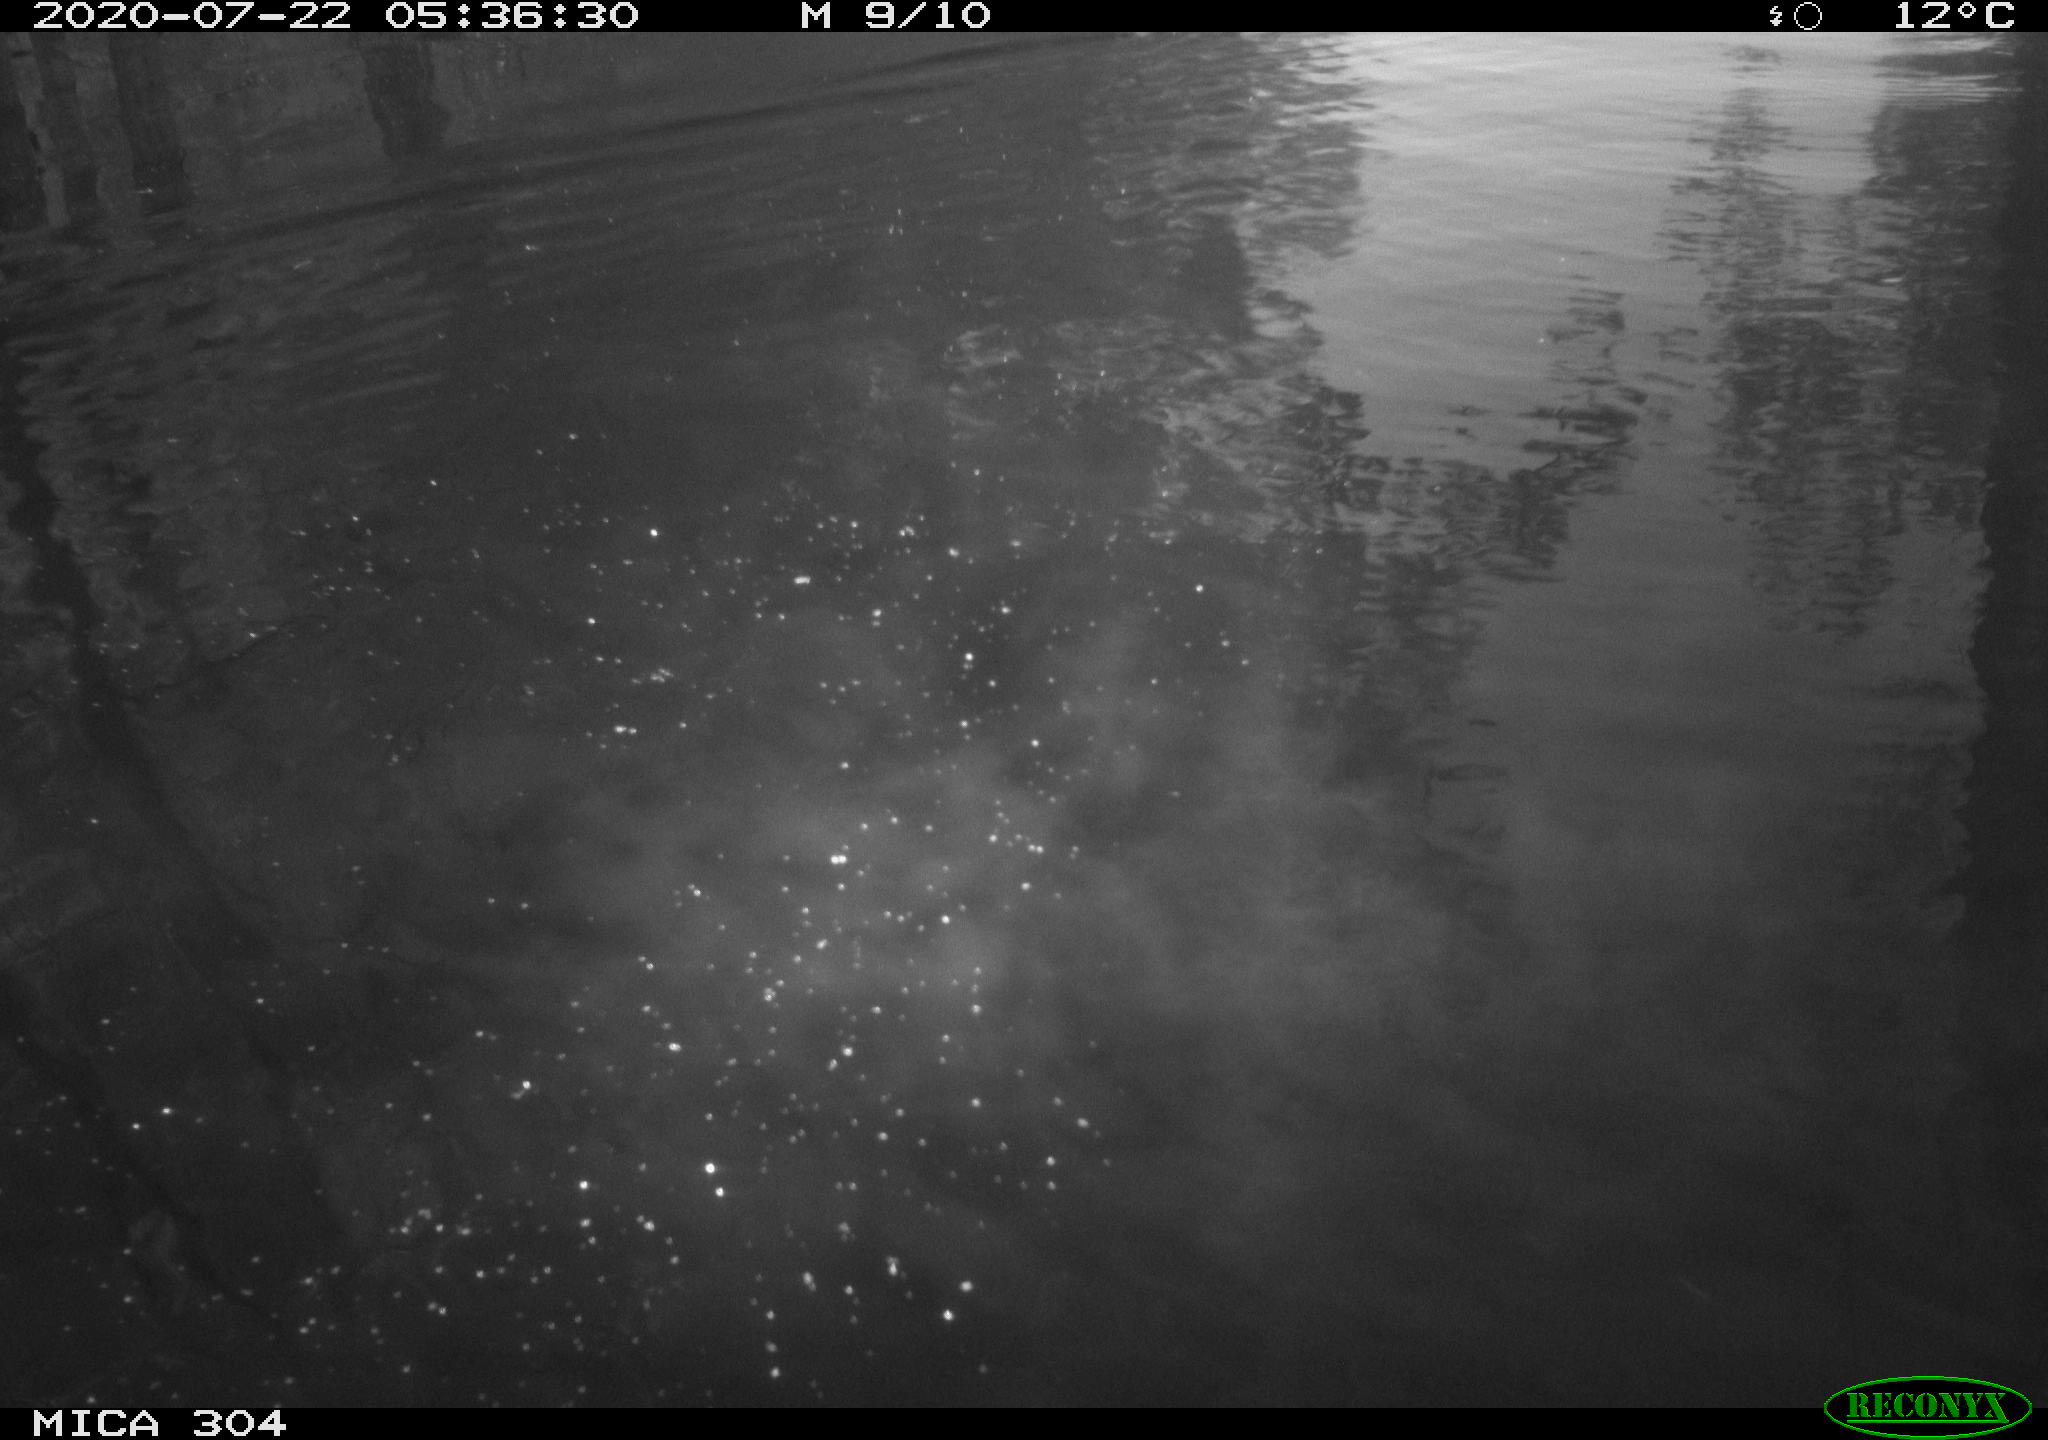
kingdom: Animalia
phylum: Chordata
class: Aves
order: Anseriformes
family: Anatidae
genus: Anas
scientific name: Anas platyrhynchos
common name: Mallard
